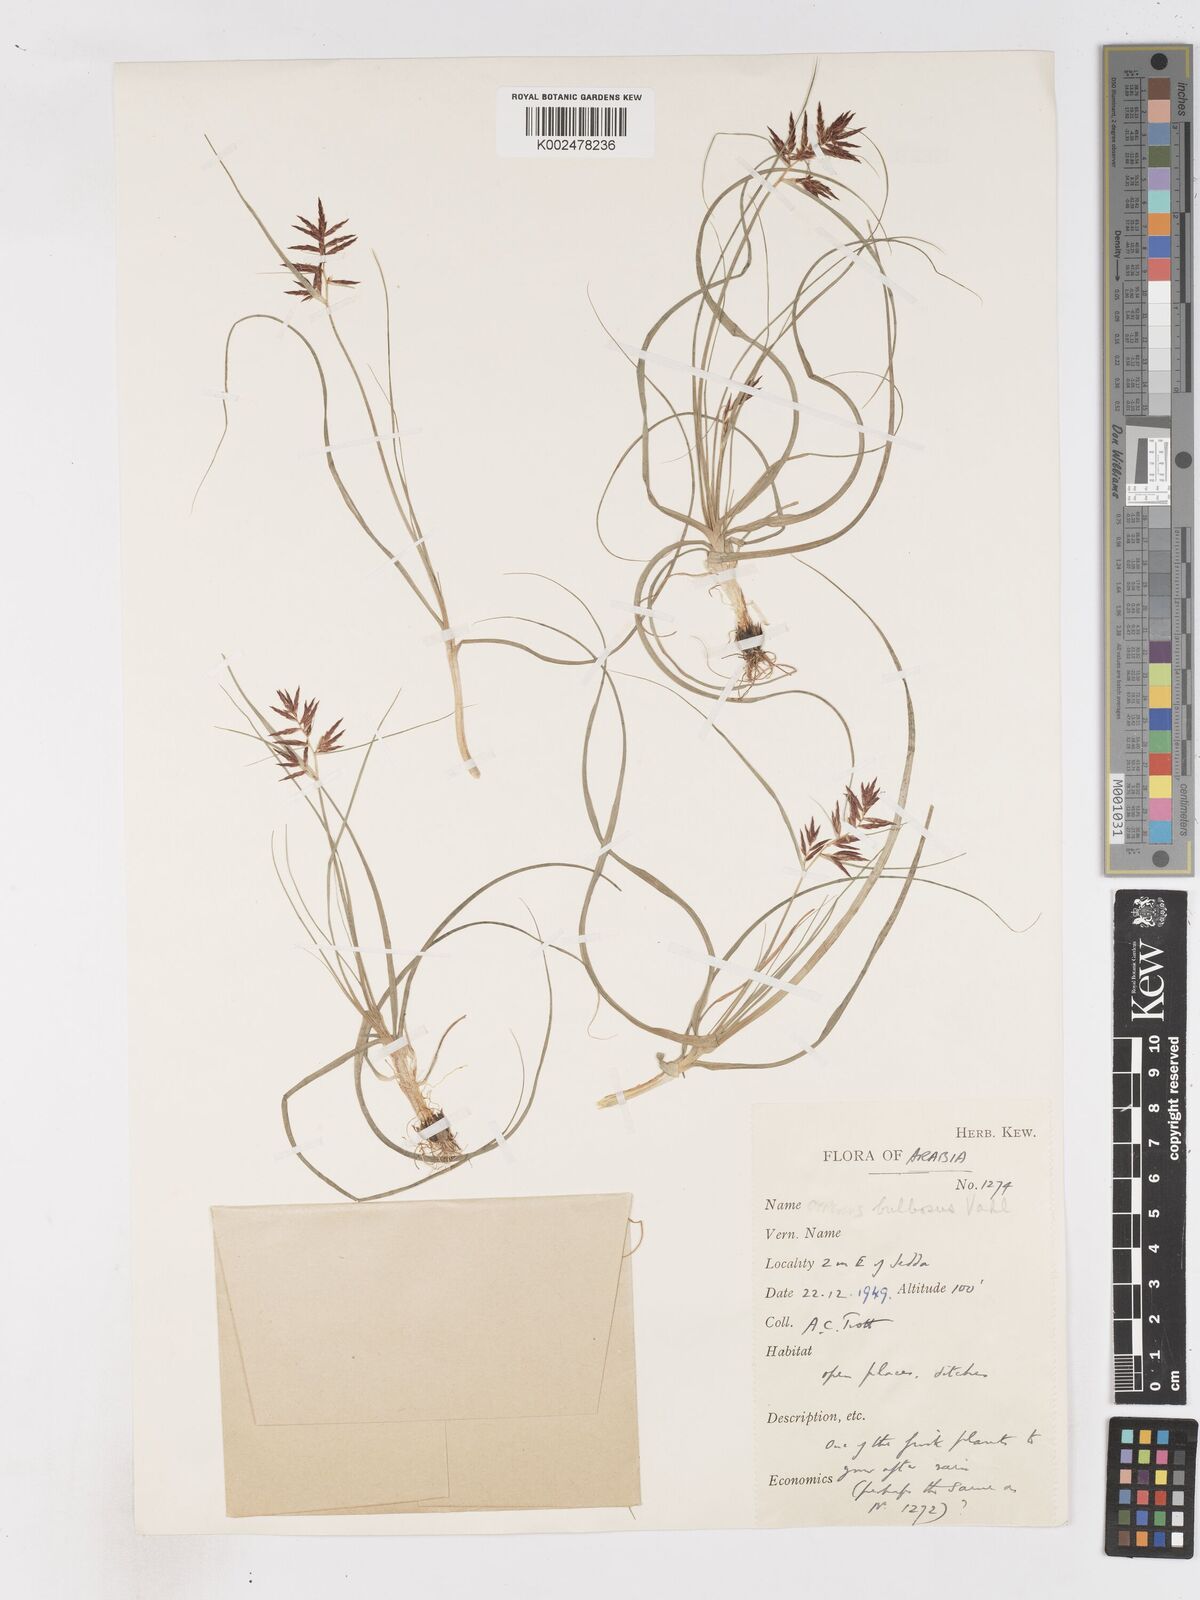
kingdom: Plantae
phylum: Tracheophyta
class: Liliopsida
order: Poales
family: Cyperaceae
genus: Cyperus
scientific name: Cyperus bulbosus
